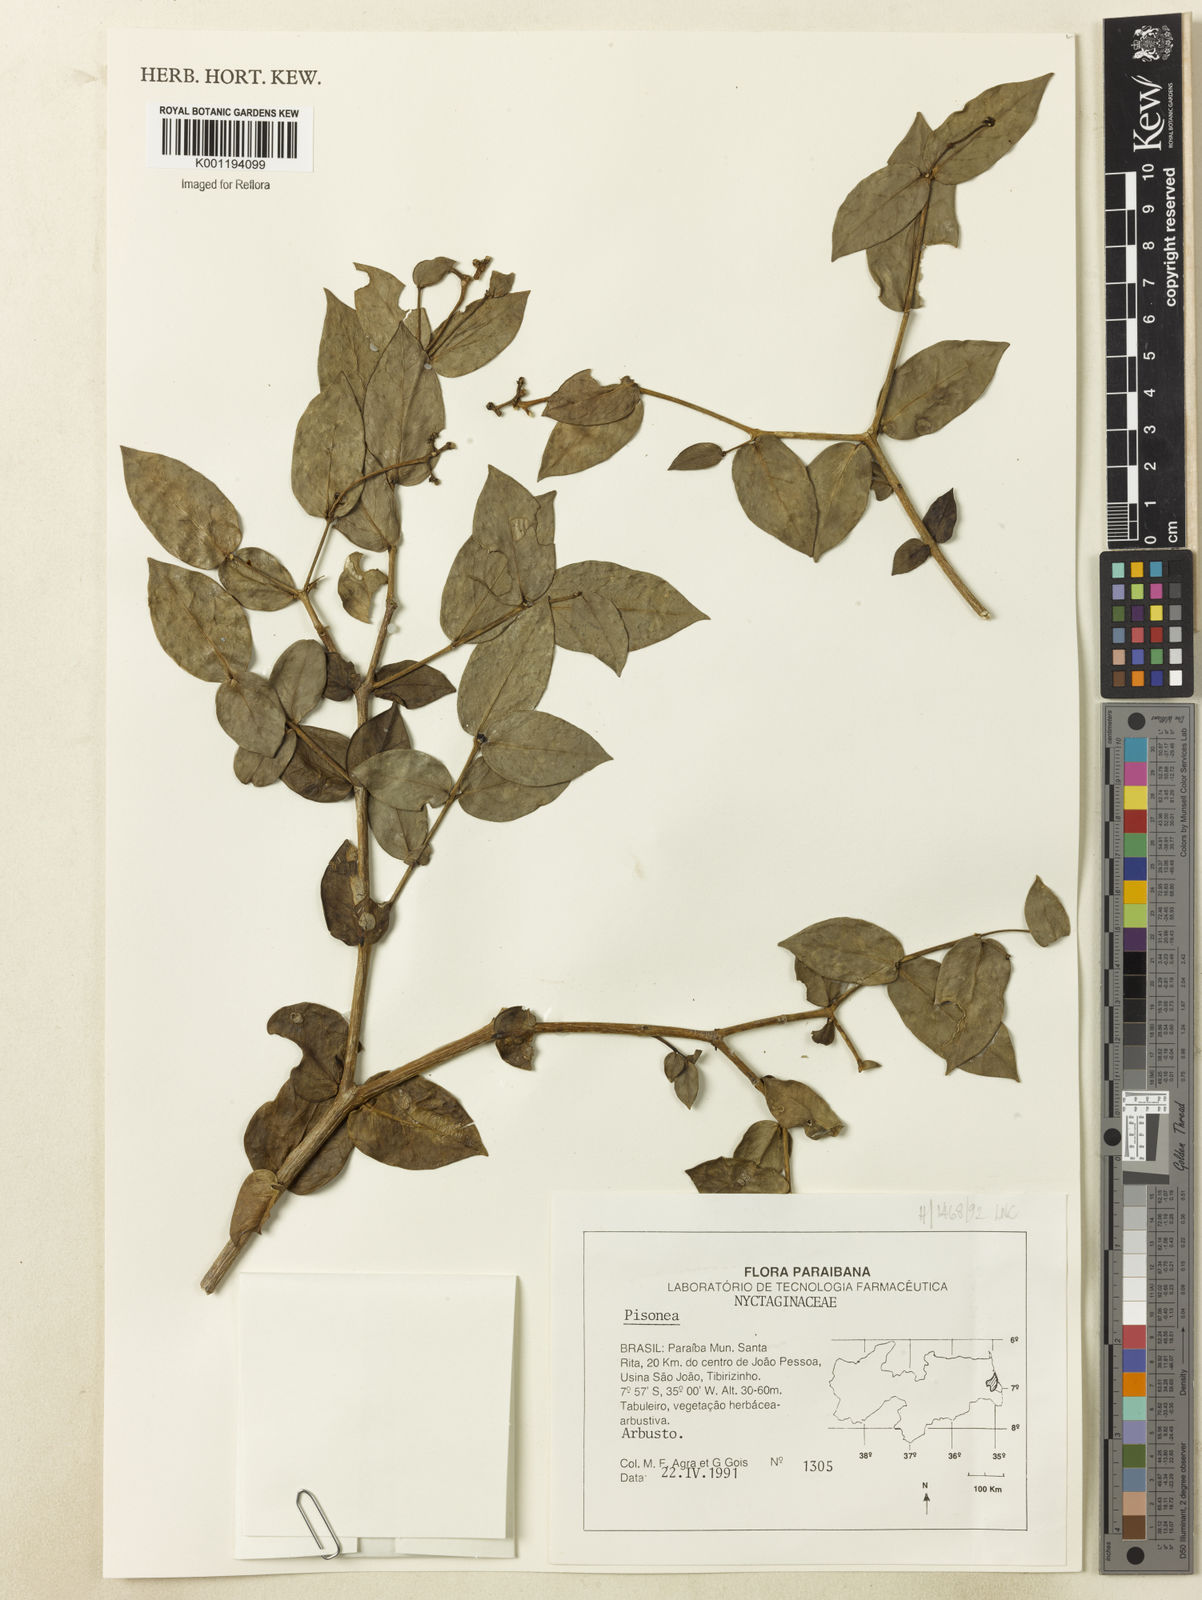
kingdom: Plantae
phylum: Tracheophyta
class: Magnoliopsida
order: Caryophyllales
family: Nyctaginaceae
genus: Guapira
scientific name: Guapira
